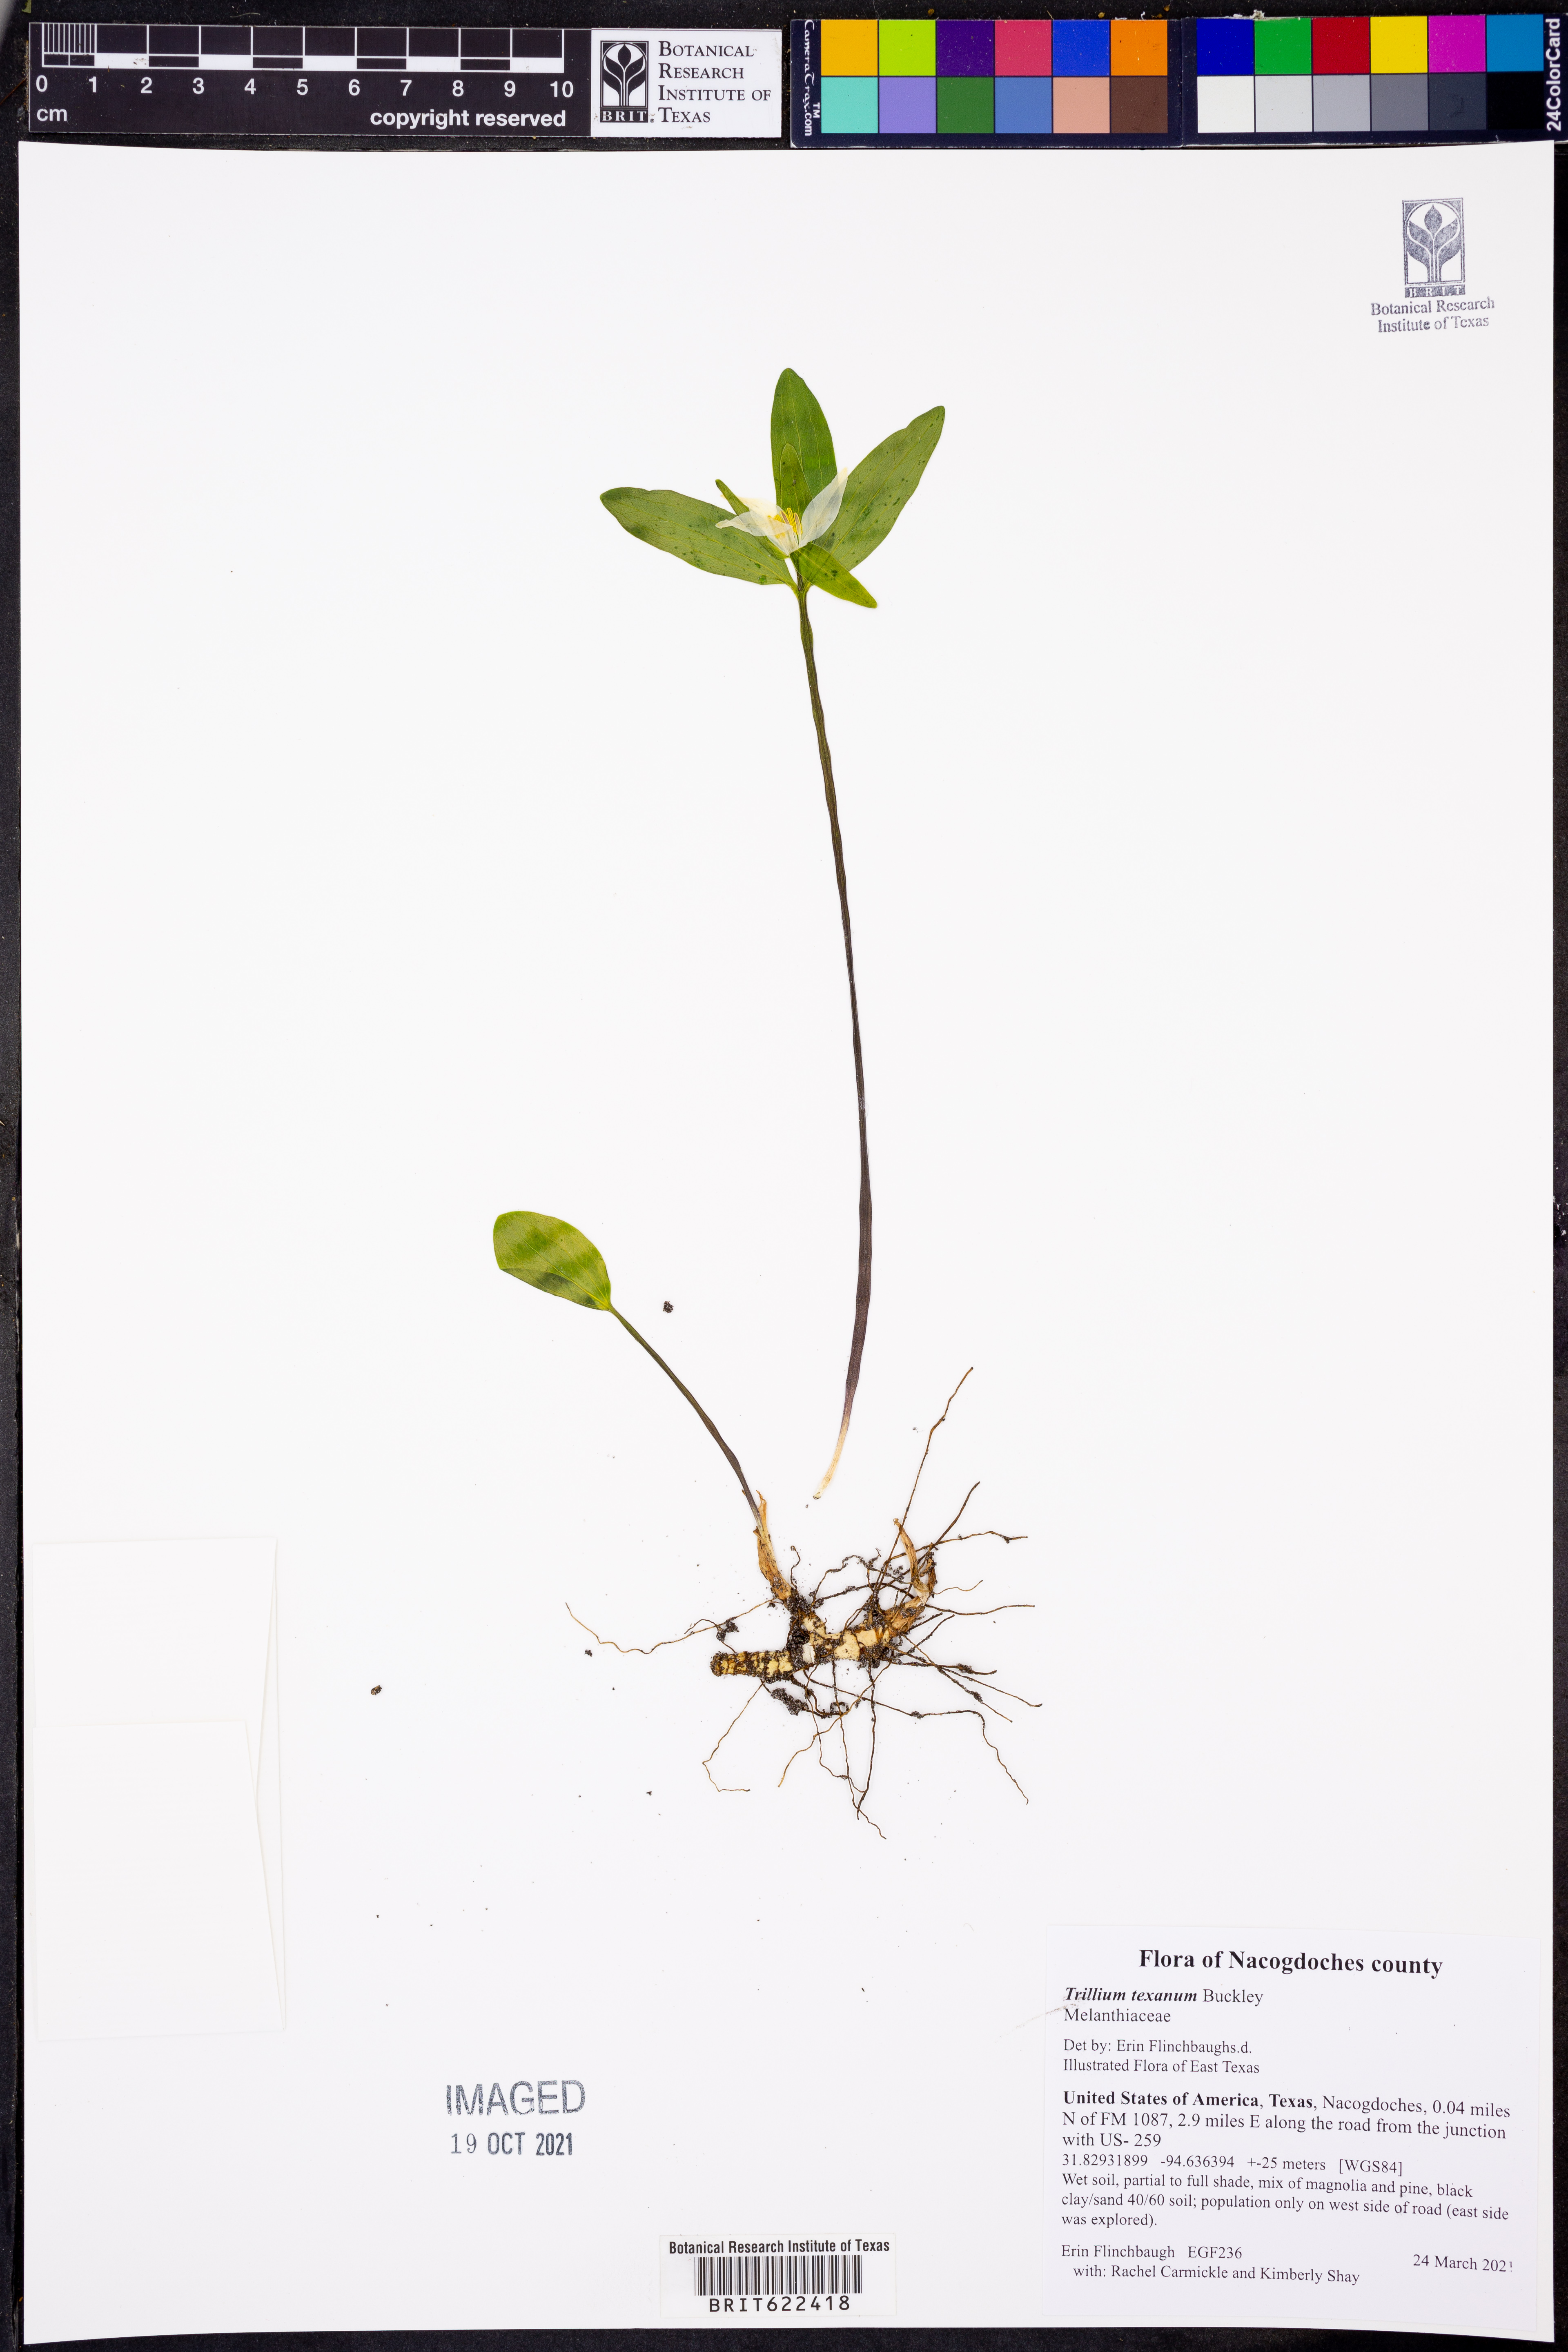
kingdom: Plantae
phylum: Tracheophyta
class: Liliopsida
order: Liliales
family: Melanthiaceae
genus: Trillium
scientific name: Trillium pusillum
